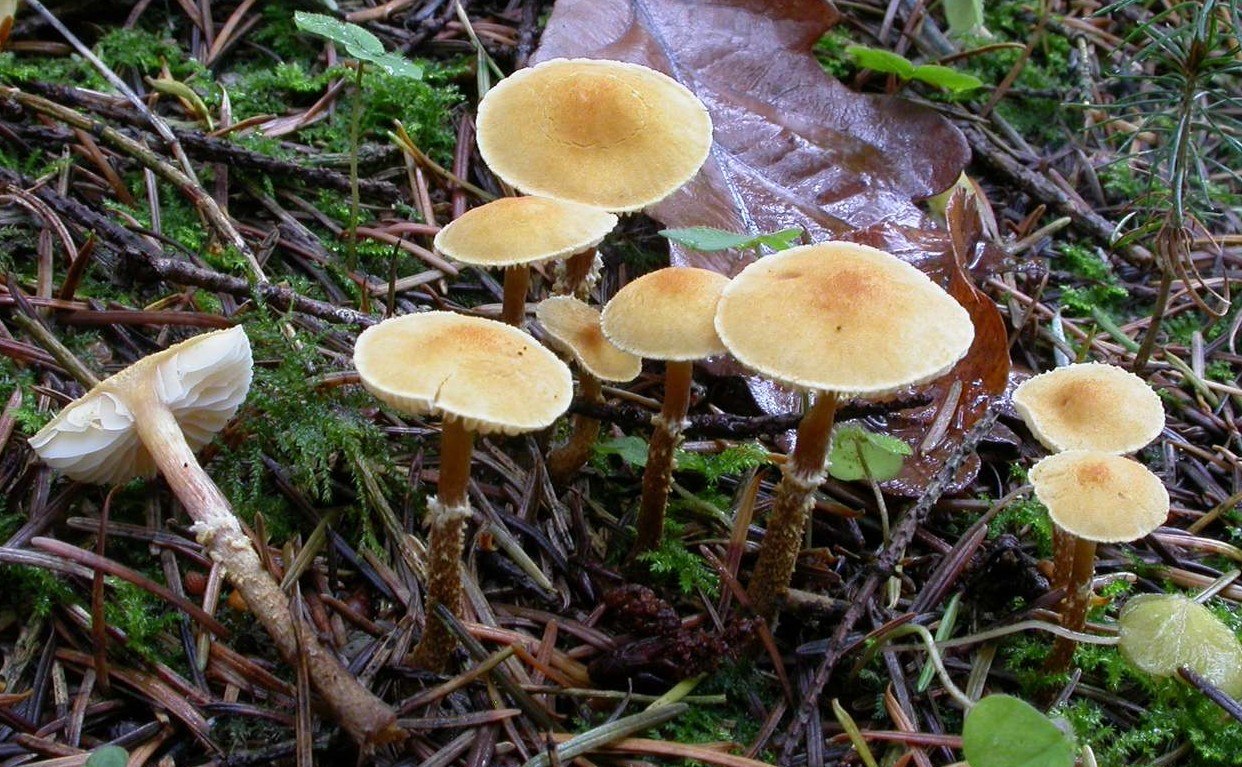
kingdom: Fungi
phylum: Basidiomycota
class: Agaricomycetes
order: Agaricales
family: Tricholomataceae
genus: Cystoderma
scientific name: Cystoderma amianthinum
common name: okkergul grynhat
